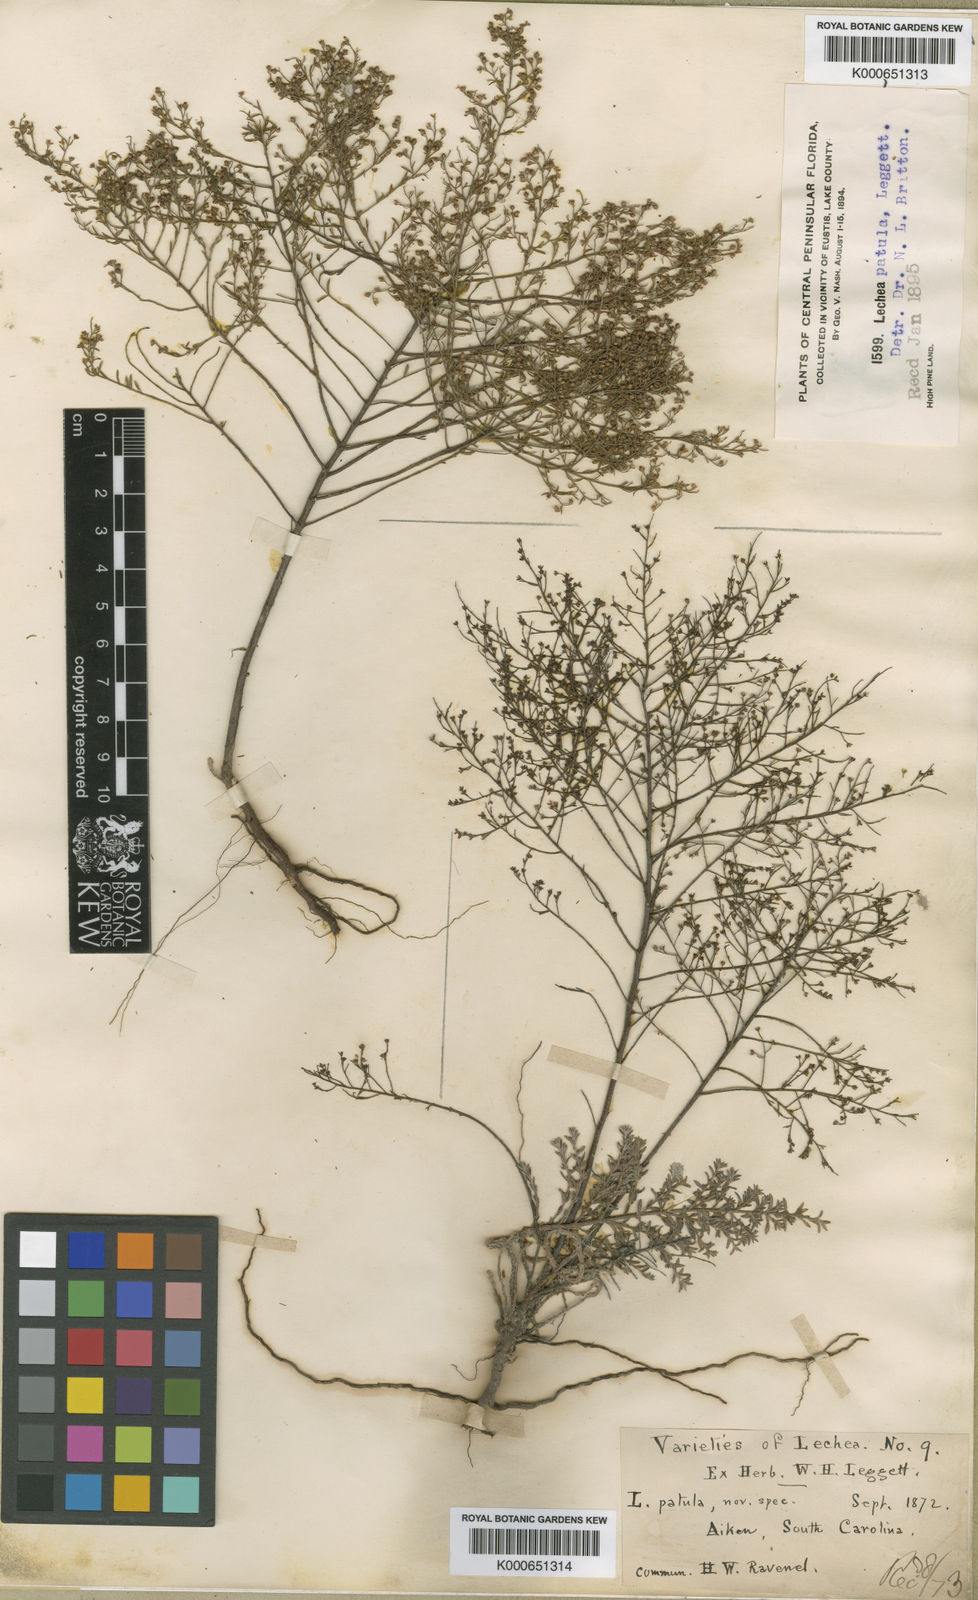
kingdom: Plantae
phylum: Tracheophyta
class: Magnoliopsida
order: Malvales
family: Cistaceae
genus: Lechea
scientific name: Lechea sessiliflora
